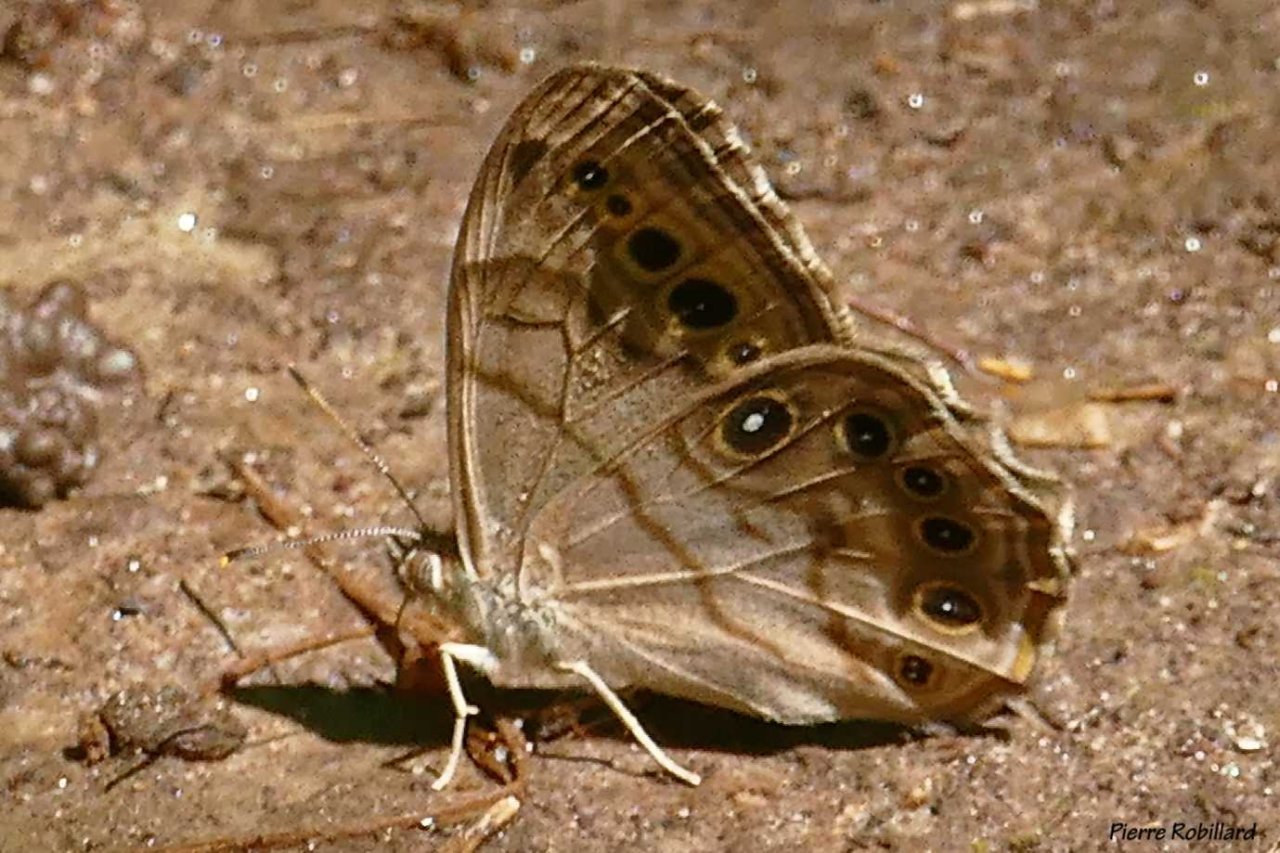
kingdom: Animalia
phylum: Arthropoda
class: Insecta
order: Lepidoptera
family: Nymphalidae
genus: Lethe
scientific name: Lethe anthedon
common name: Northern Pearly-Eye
